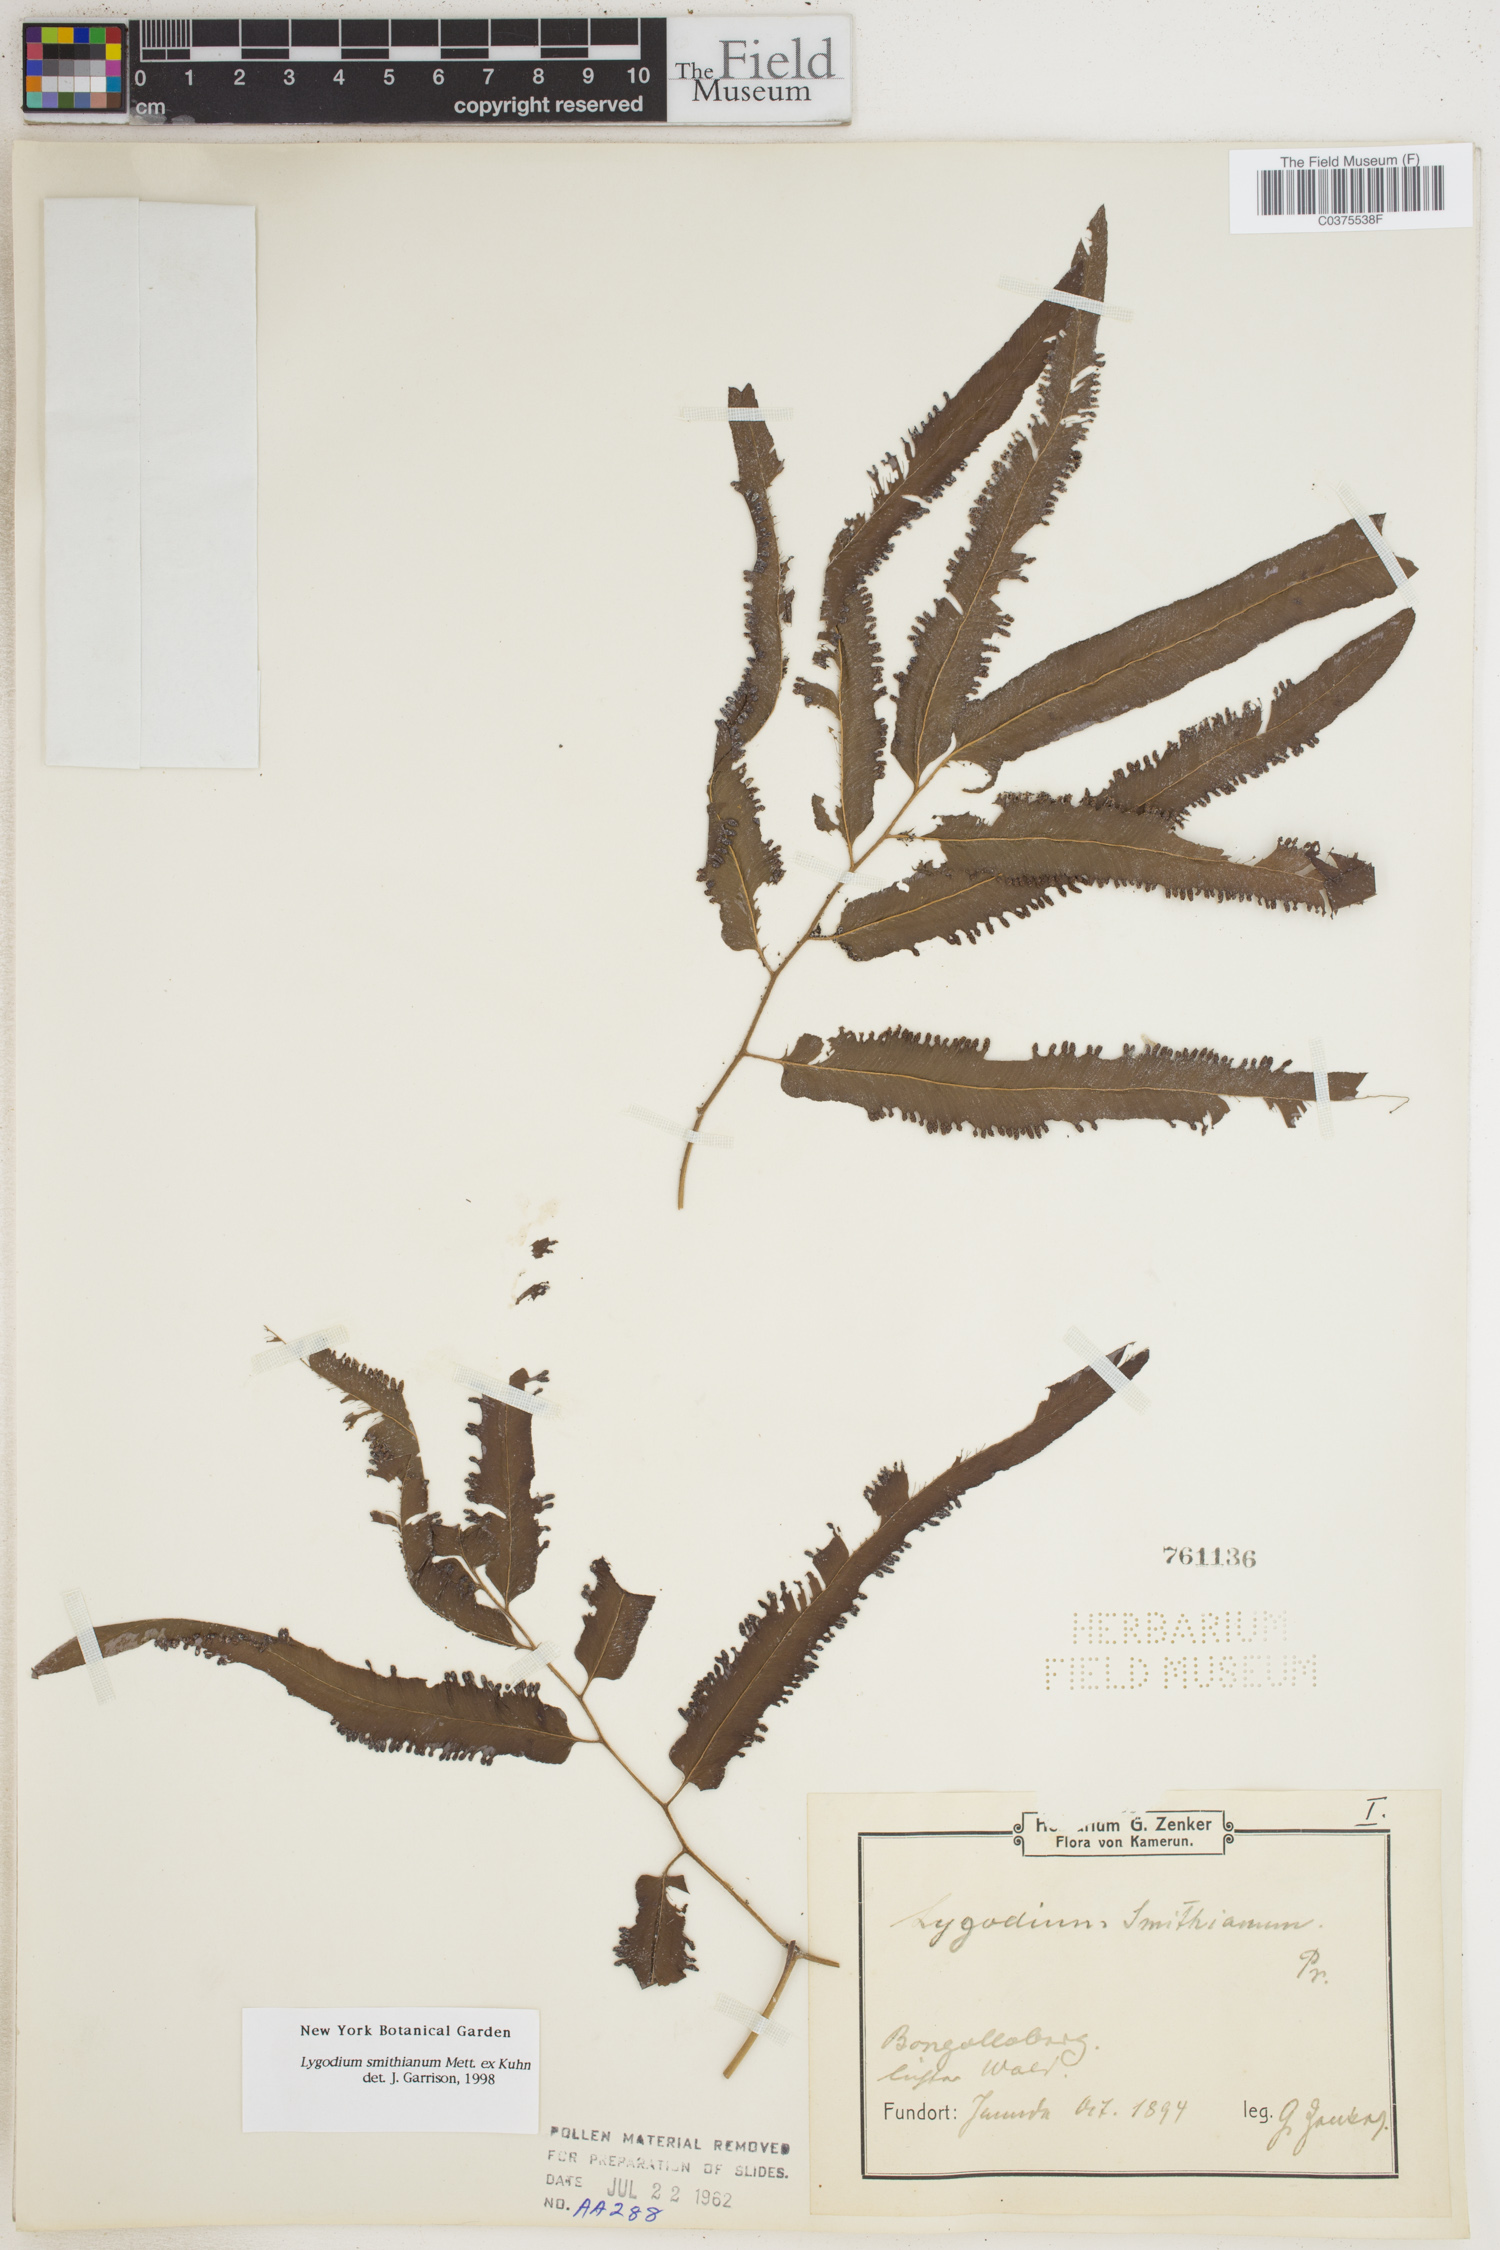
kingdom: Plantae
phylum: Tracheophyta
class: Polypodiopsida
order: Schizaeales
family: Lygodiaceae
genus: Lygodium
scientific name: Lygodium smithianum
